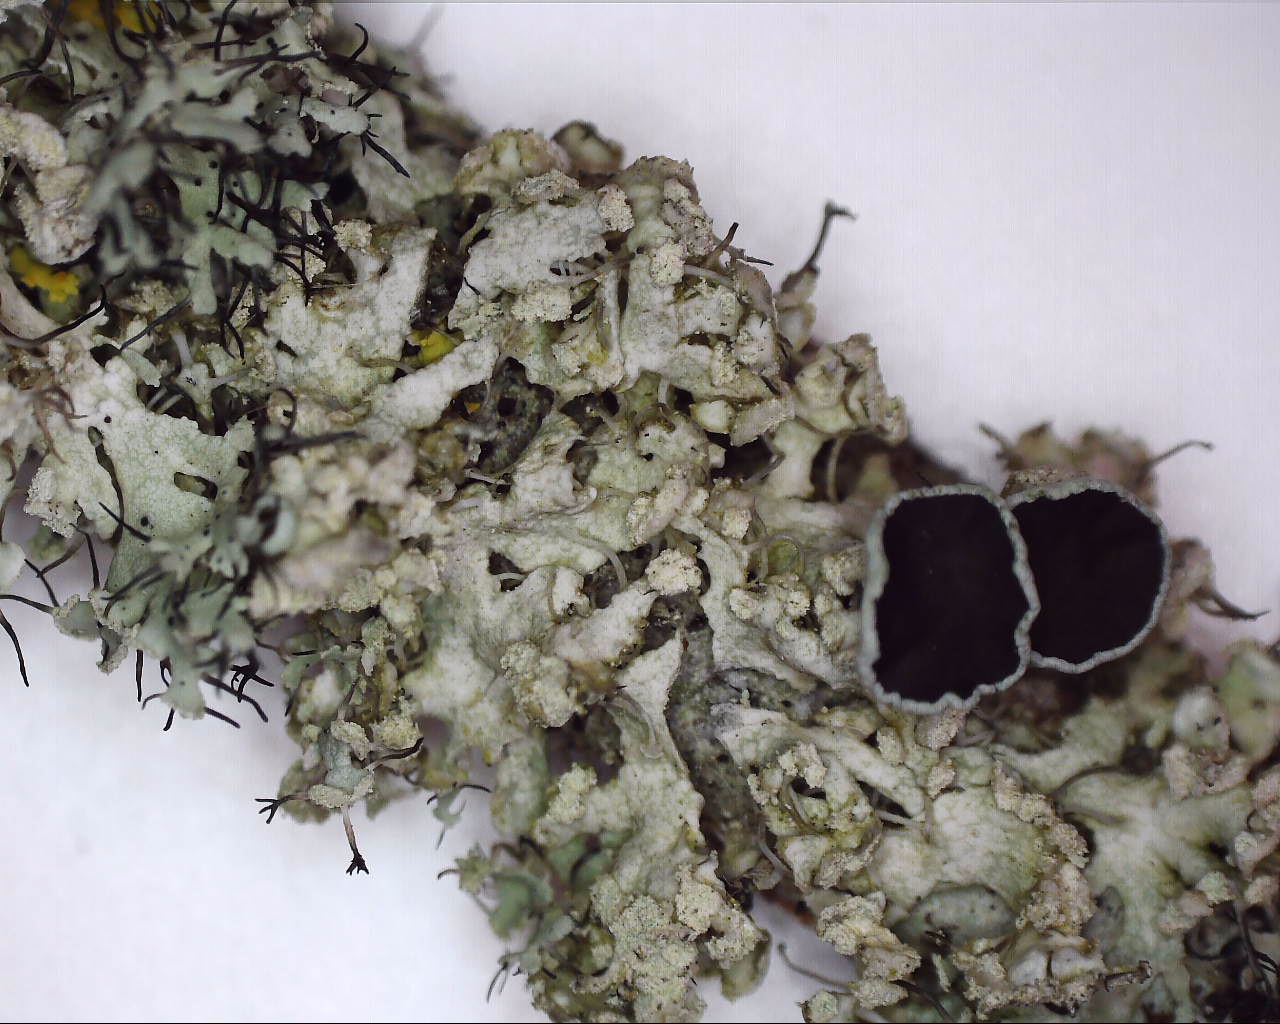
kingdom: Fungi
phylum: Ascomycota
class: Lecanoromycetes
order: Caliciales
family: Physciaceae
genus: Physcia
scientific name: Physcia tenella
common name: spæd rosetlav
